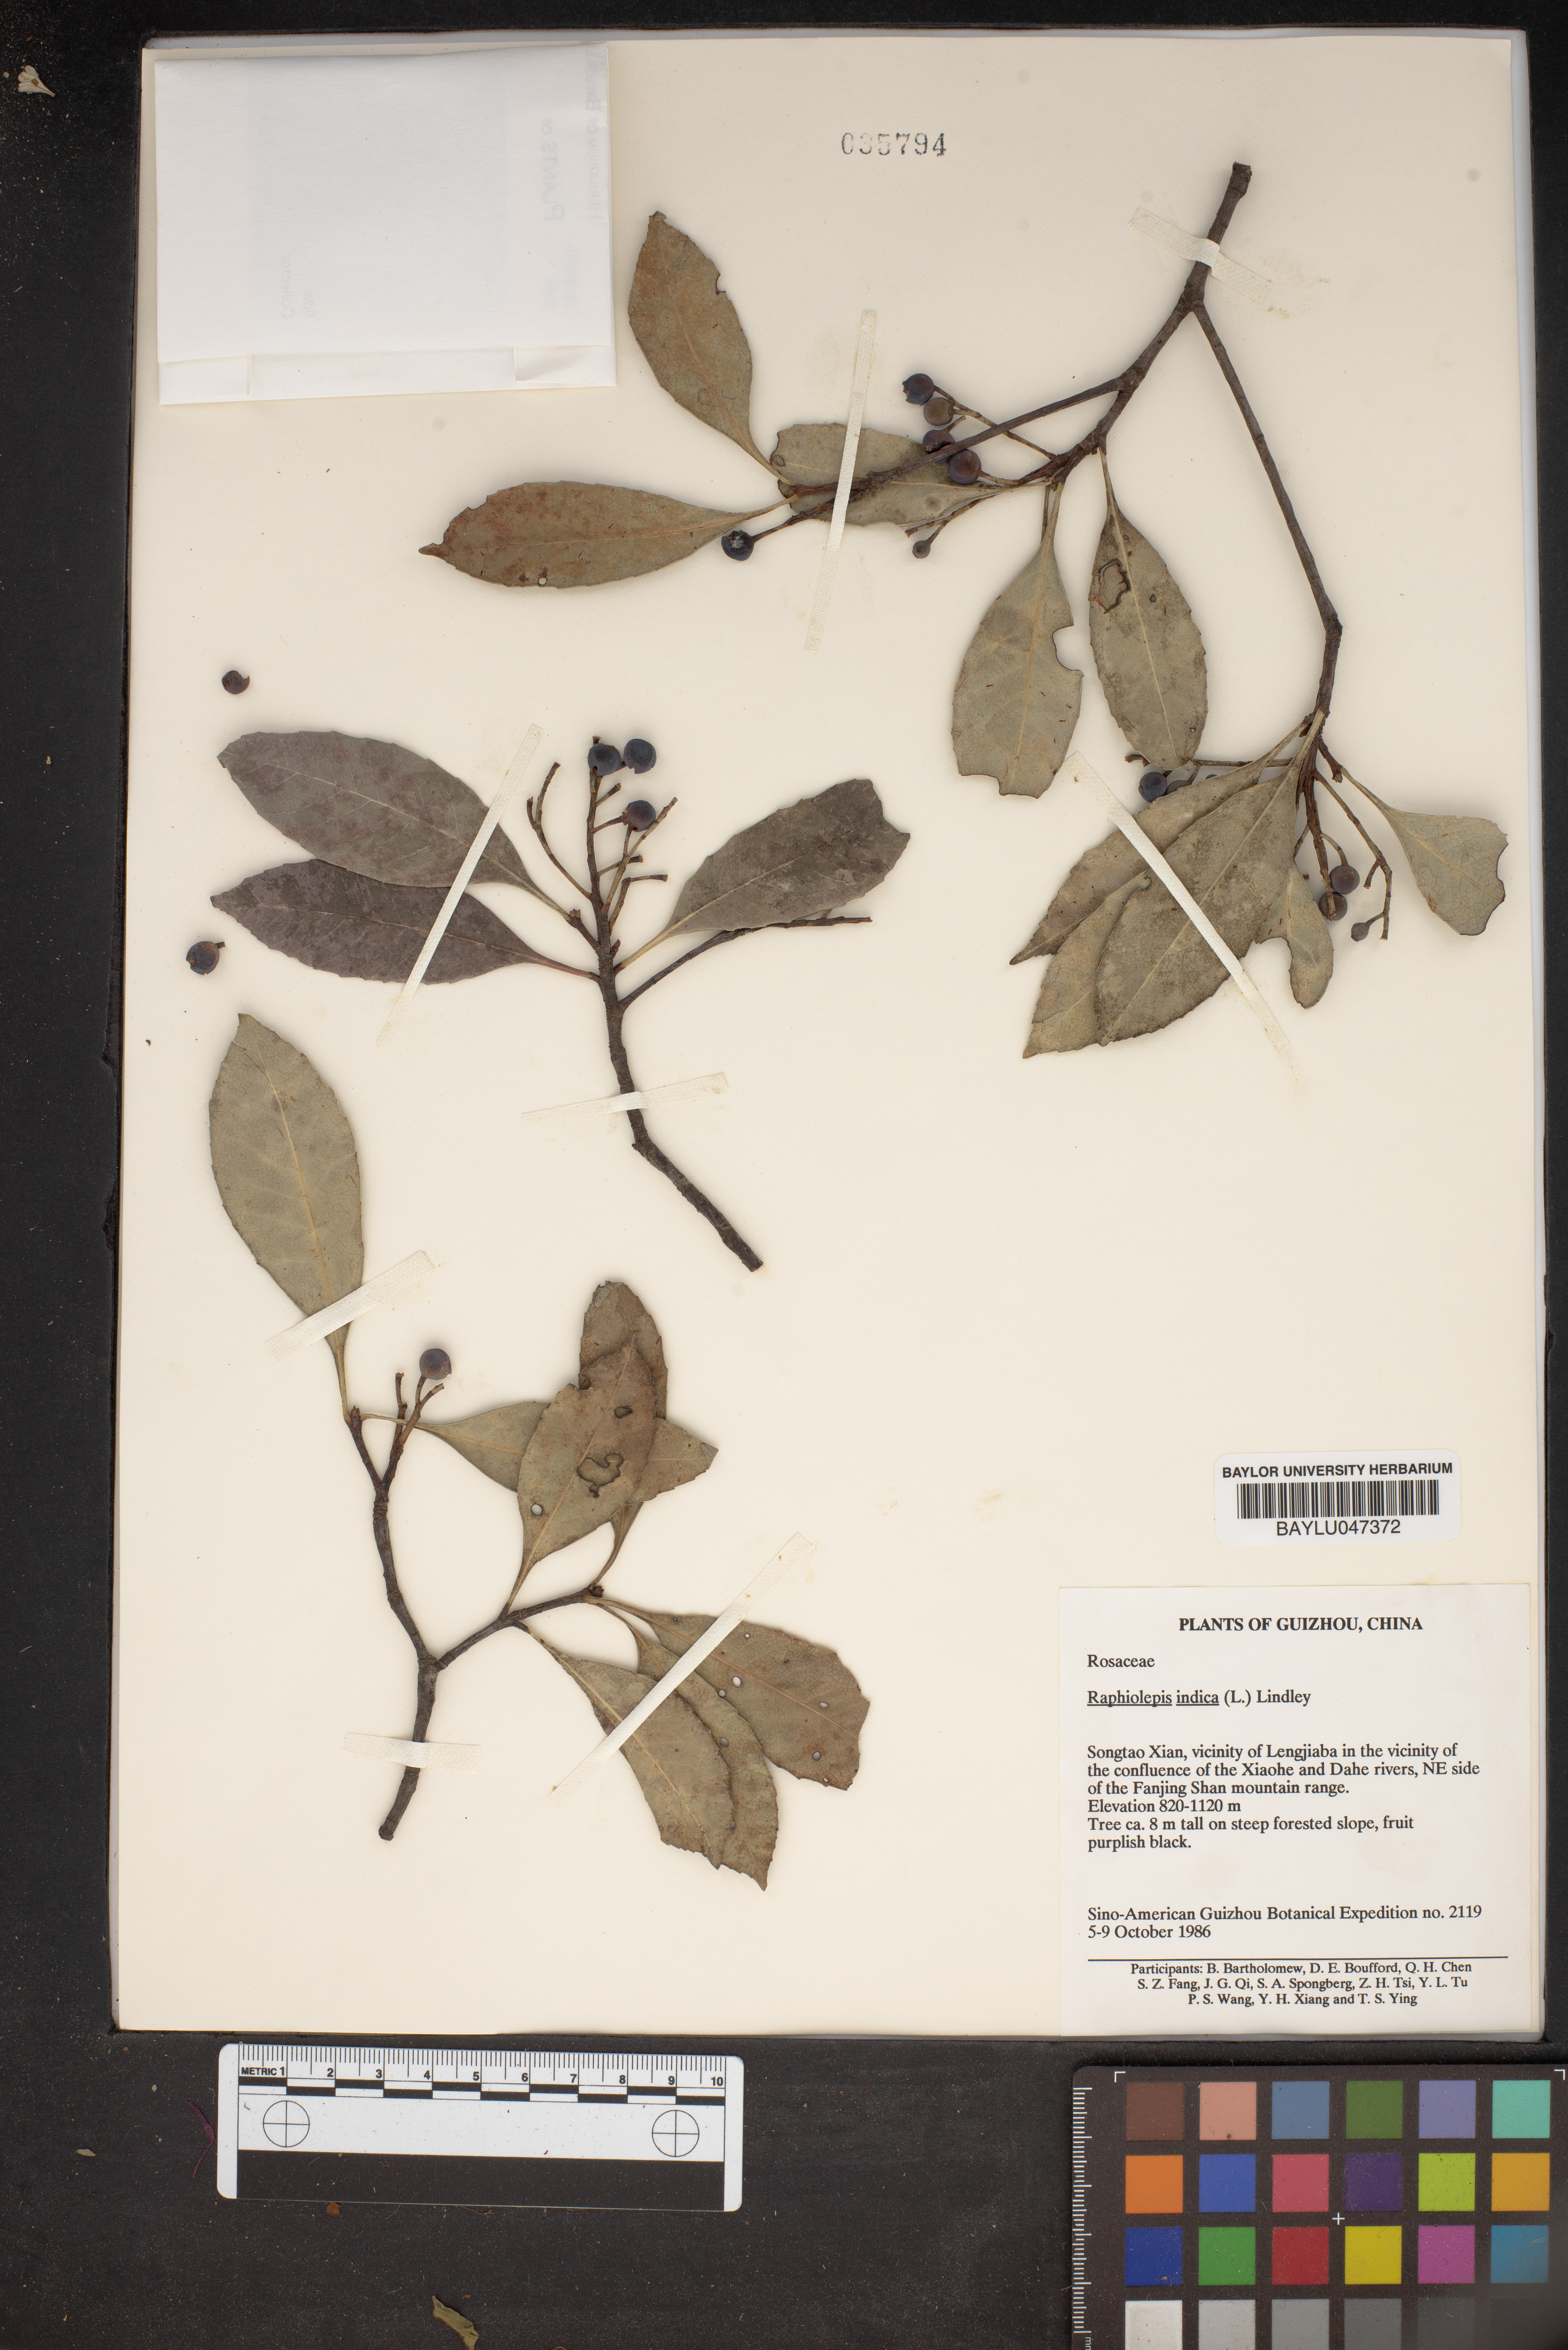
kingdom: Plantae
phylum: Tracheophyta
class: Magnoliopsida
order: Rosales
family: Rosaceae
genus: Rhaphiolepis
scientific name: Rhaphiolepis indica
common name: India-hawthorn
